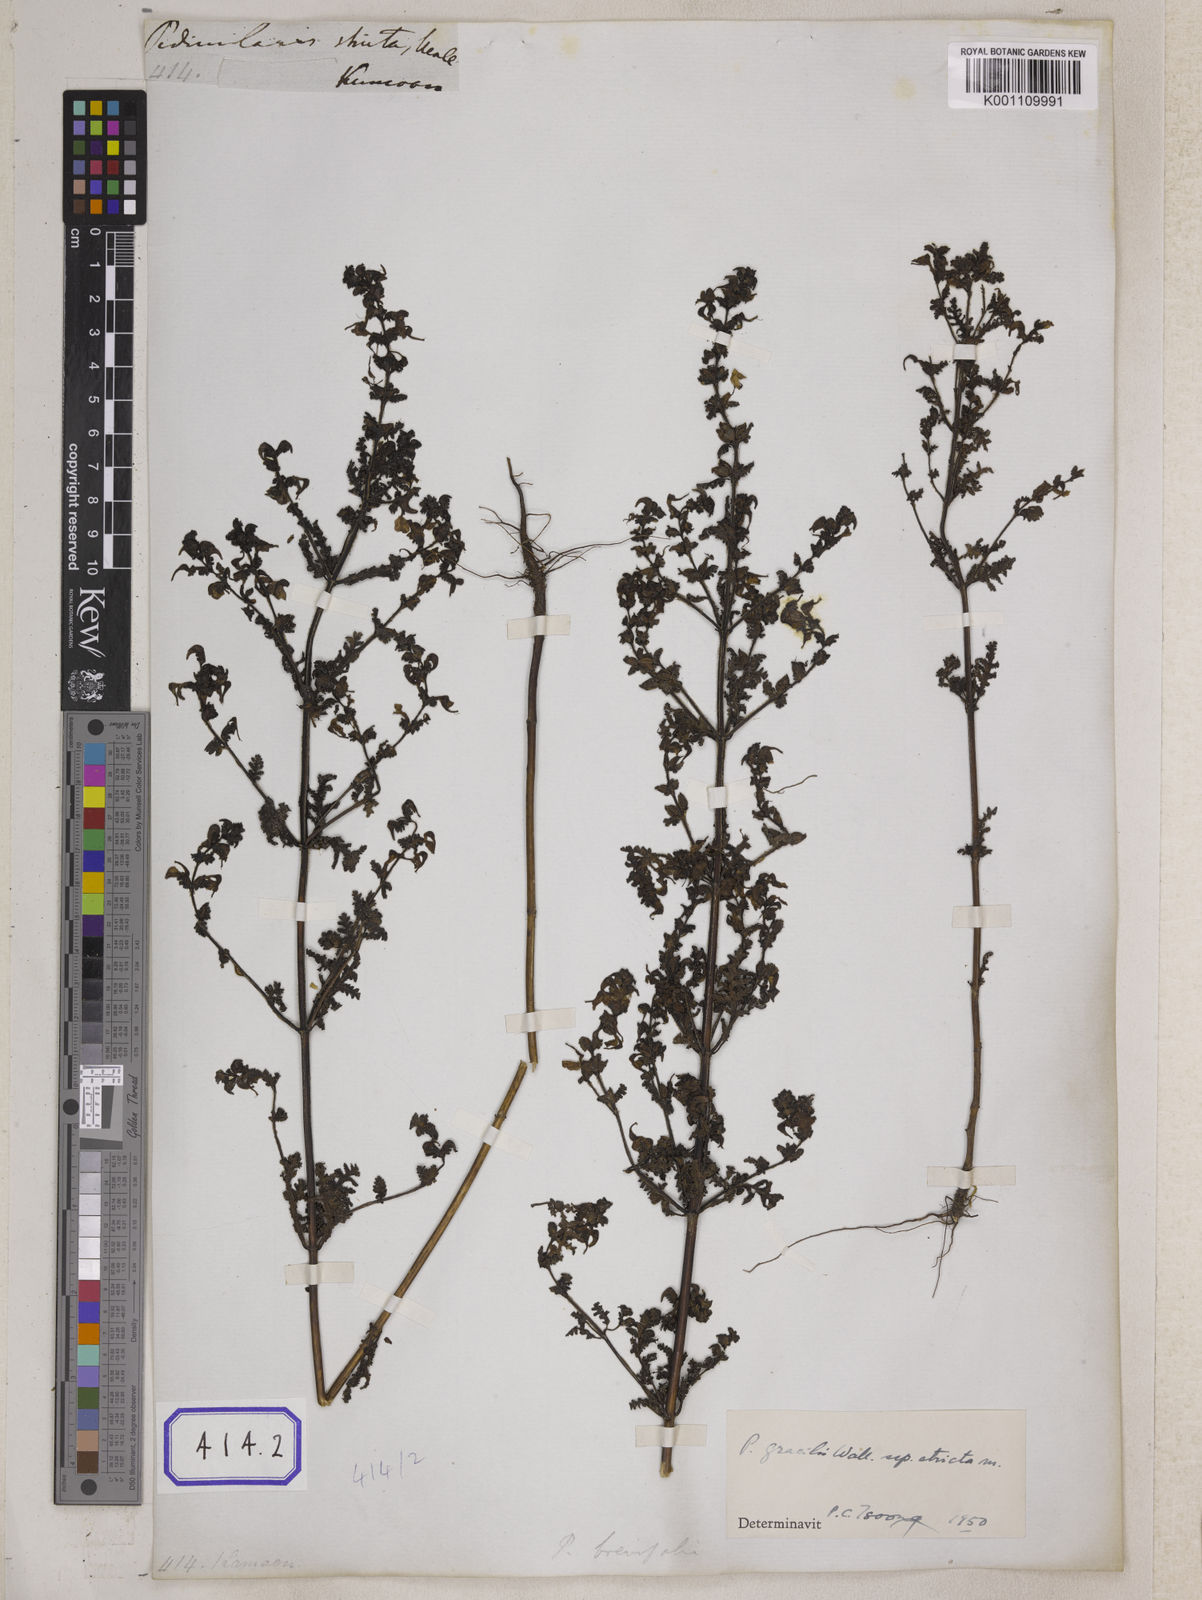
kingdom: Plantae
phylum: Tracheophyta
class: Magnoliopsida
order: Lamiales
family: Orobanchaceae
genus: Pedicularis
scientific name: Pedicularis gracilis
